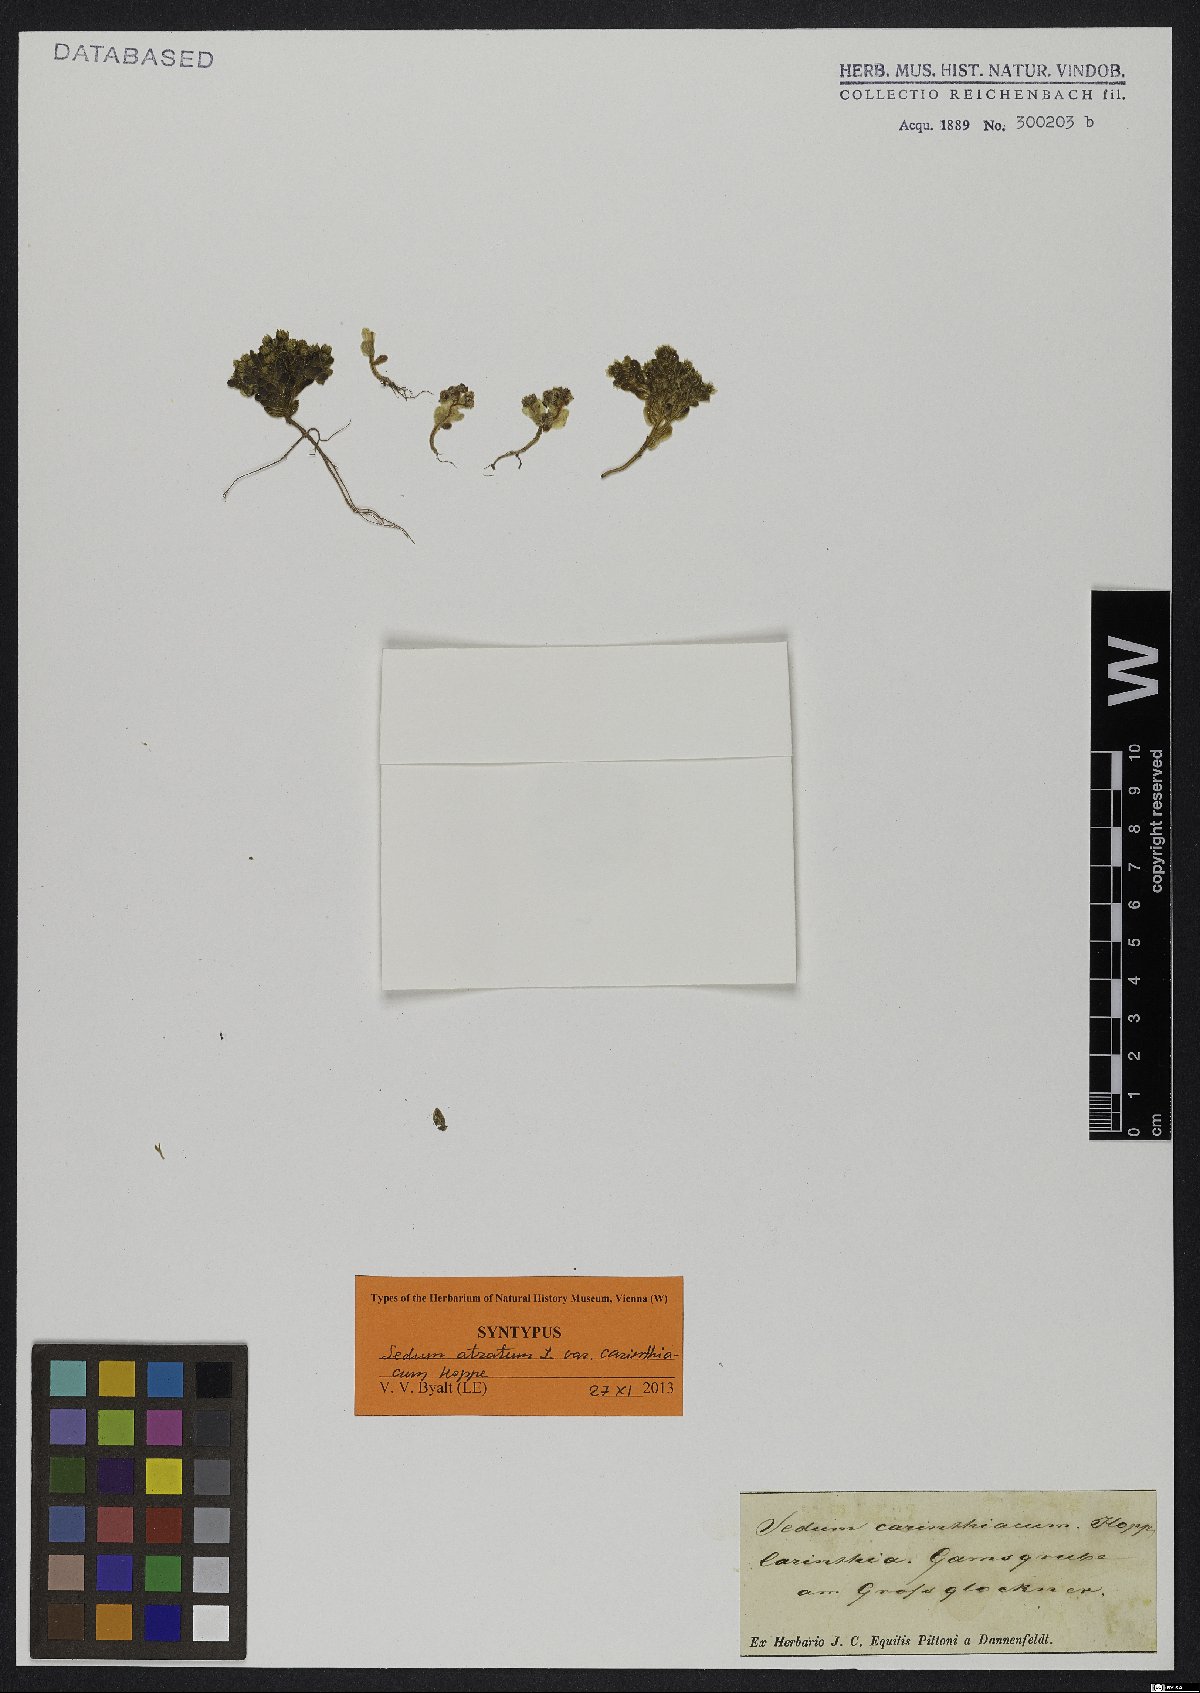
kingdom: Plantae
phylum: Tracheophyta
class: Magnoliopsida
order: Saxifragales
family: Crassulaceae
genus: Sedum
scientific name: Sedum atratum
